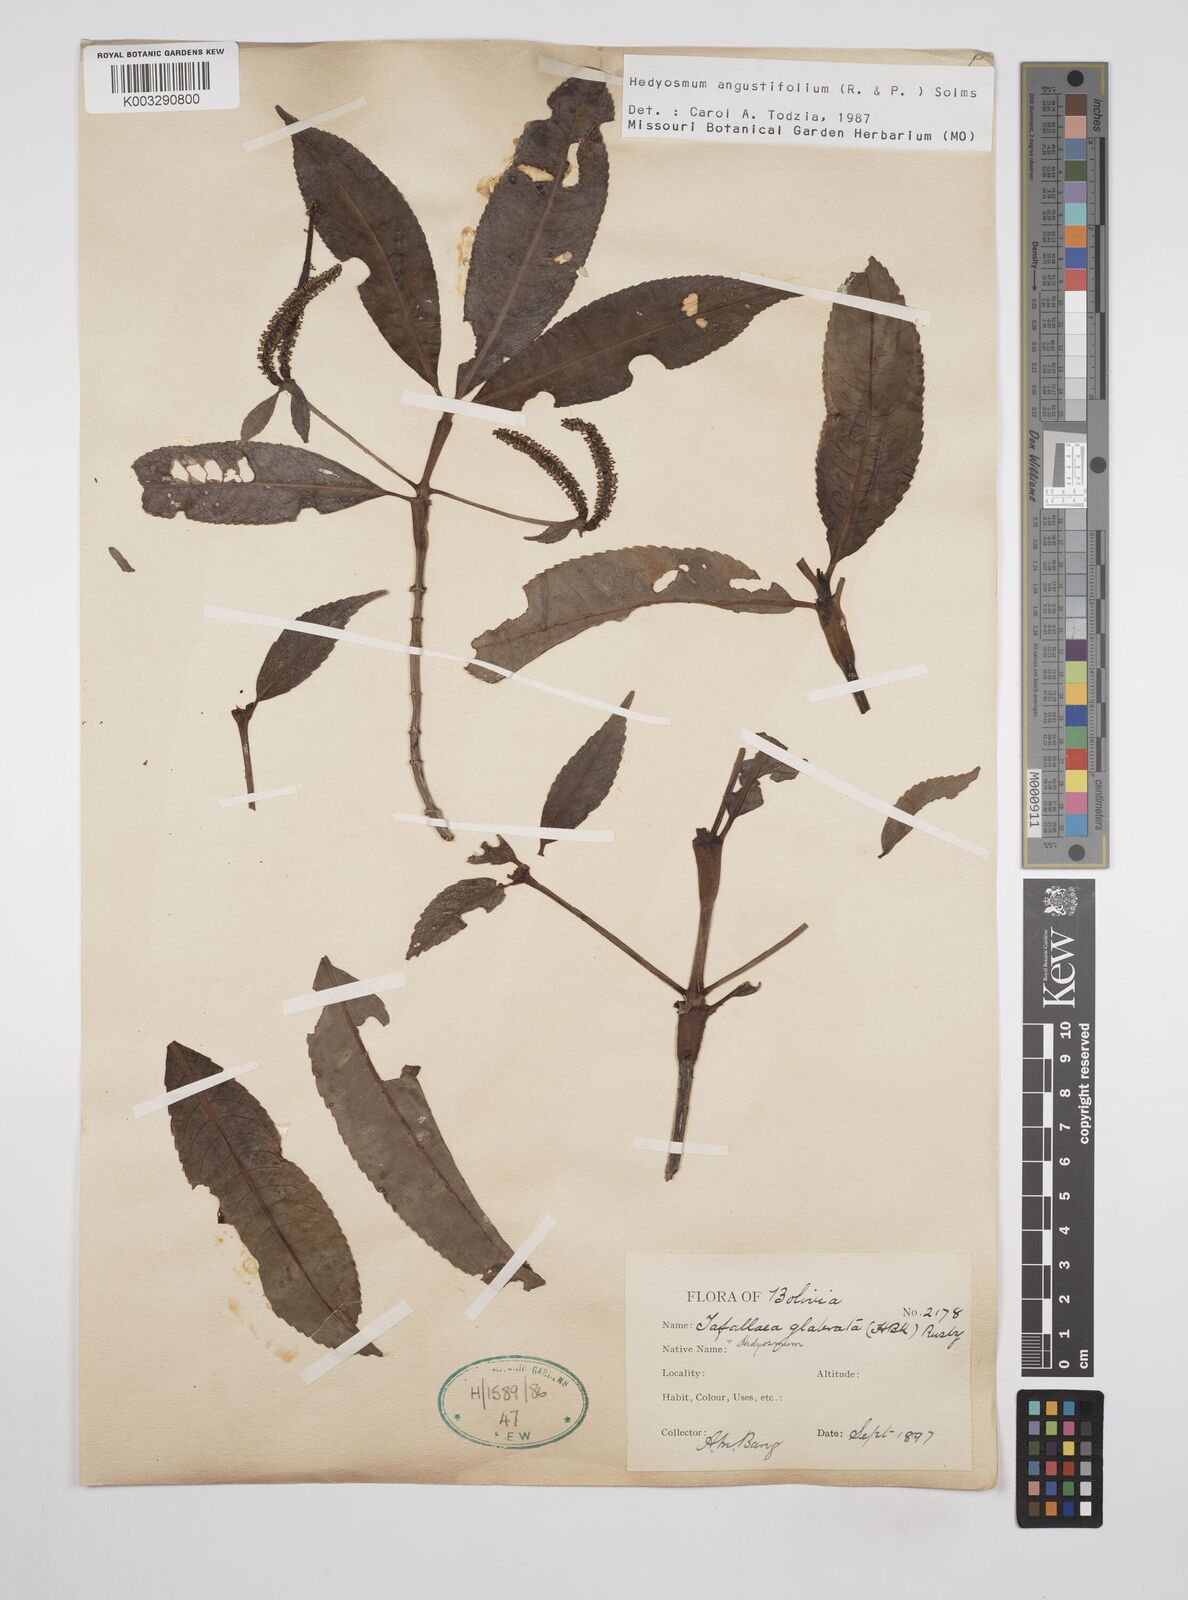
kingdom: Plantae
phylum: Tracheophyta
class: Magnoliopsida
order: Chloranthales
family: Chloranthaceae
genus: Hedyosmum
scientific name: Hedyosmum angustifolium
